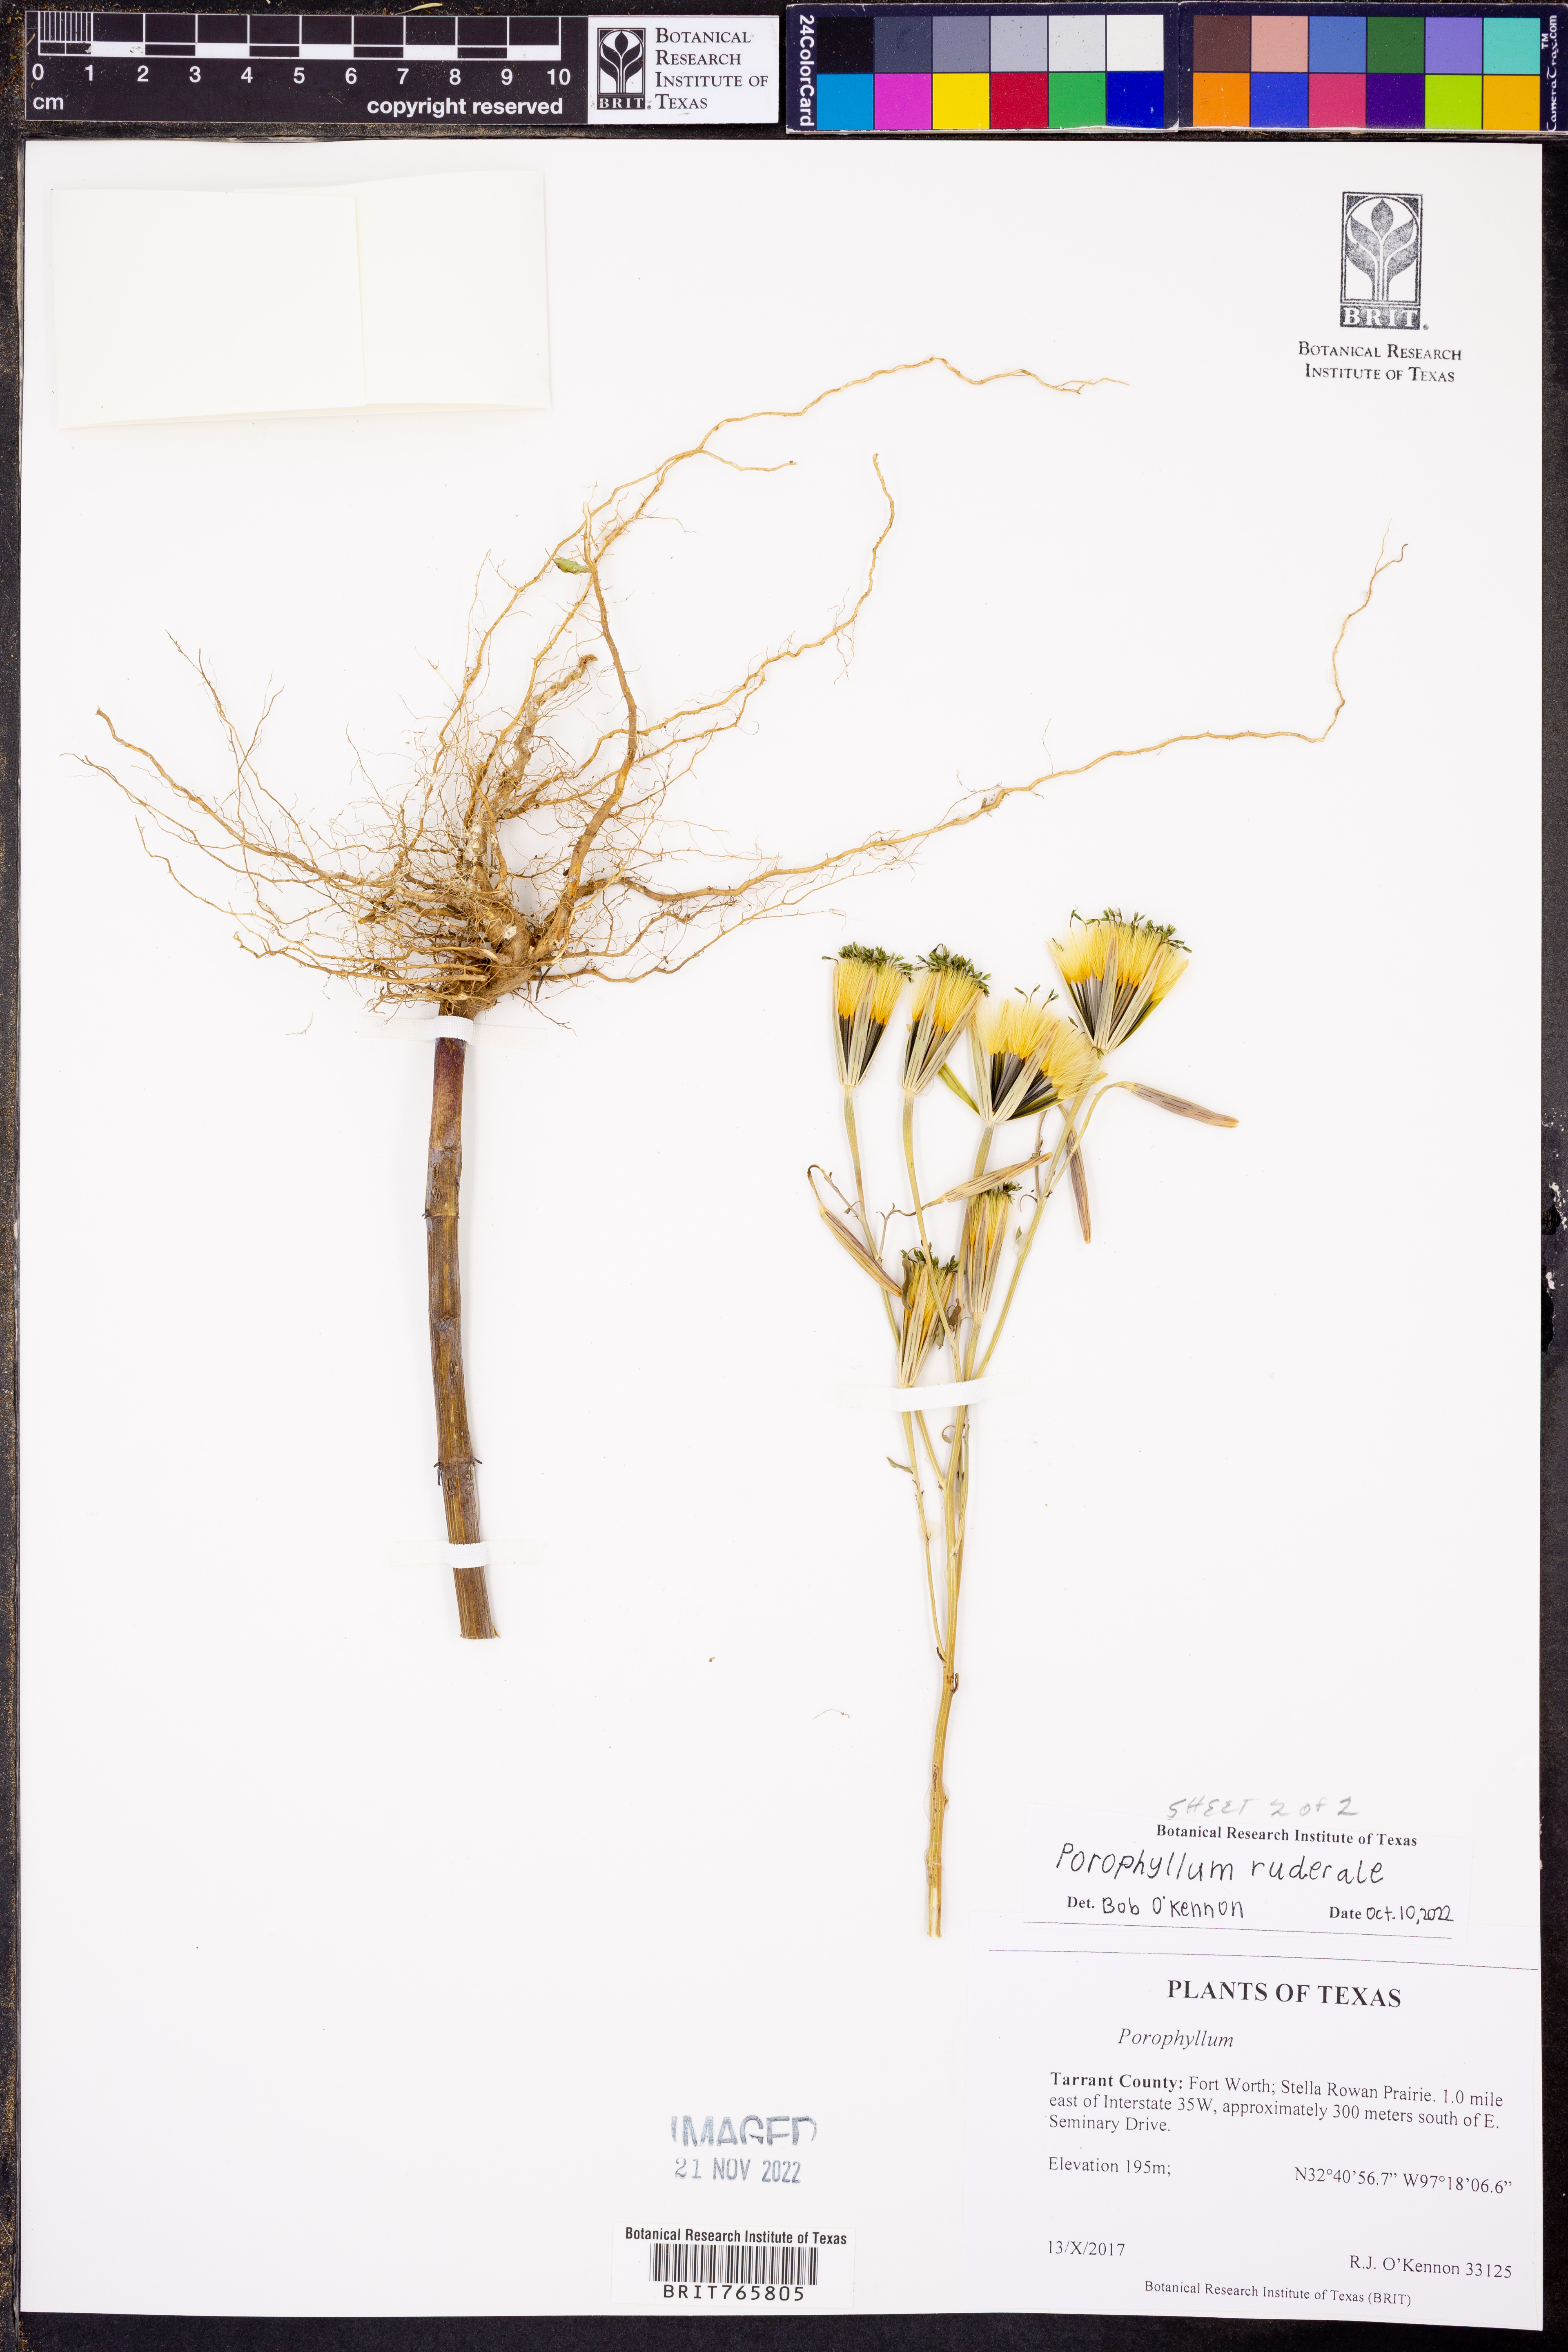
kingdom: Plantae
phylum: Tracheophyta
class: Magnoliopsida
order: Asterales
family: Asteraceae
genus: Porophyllum
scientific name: Porophyllum ruderale
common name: Yerba porosa
